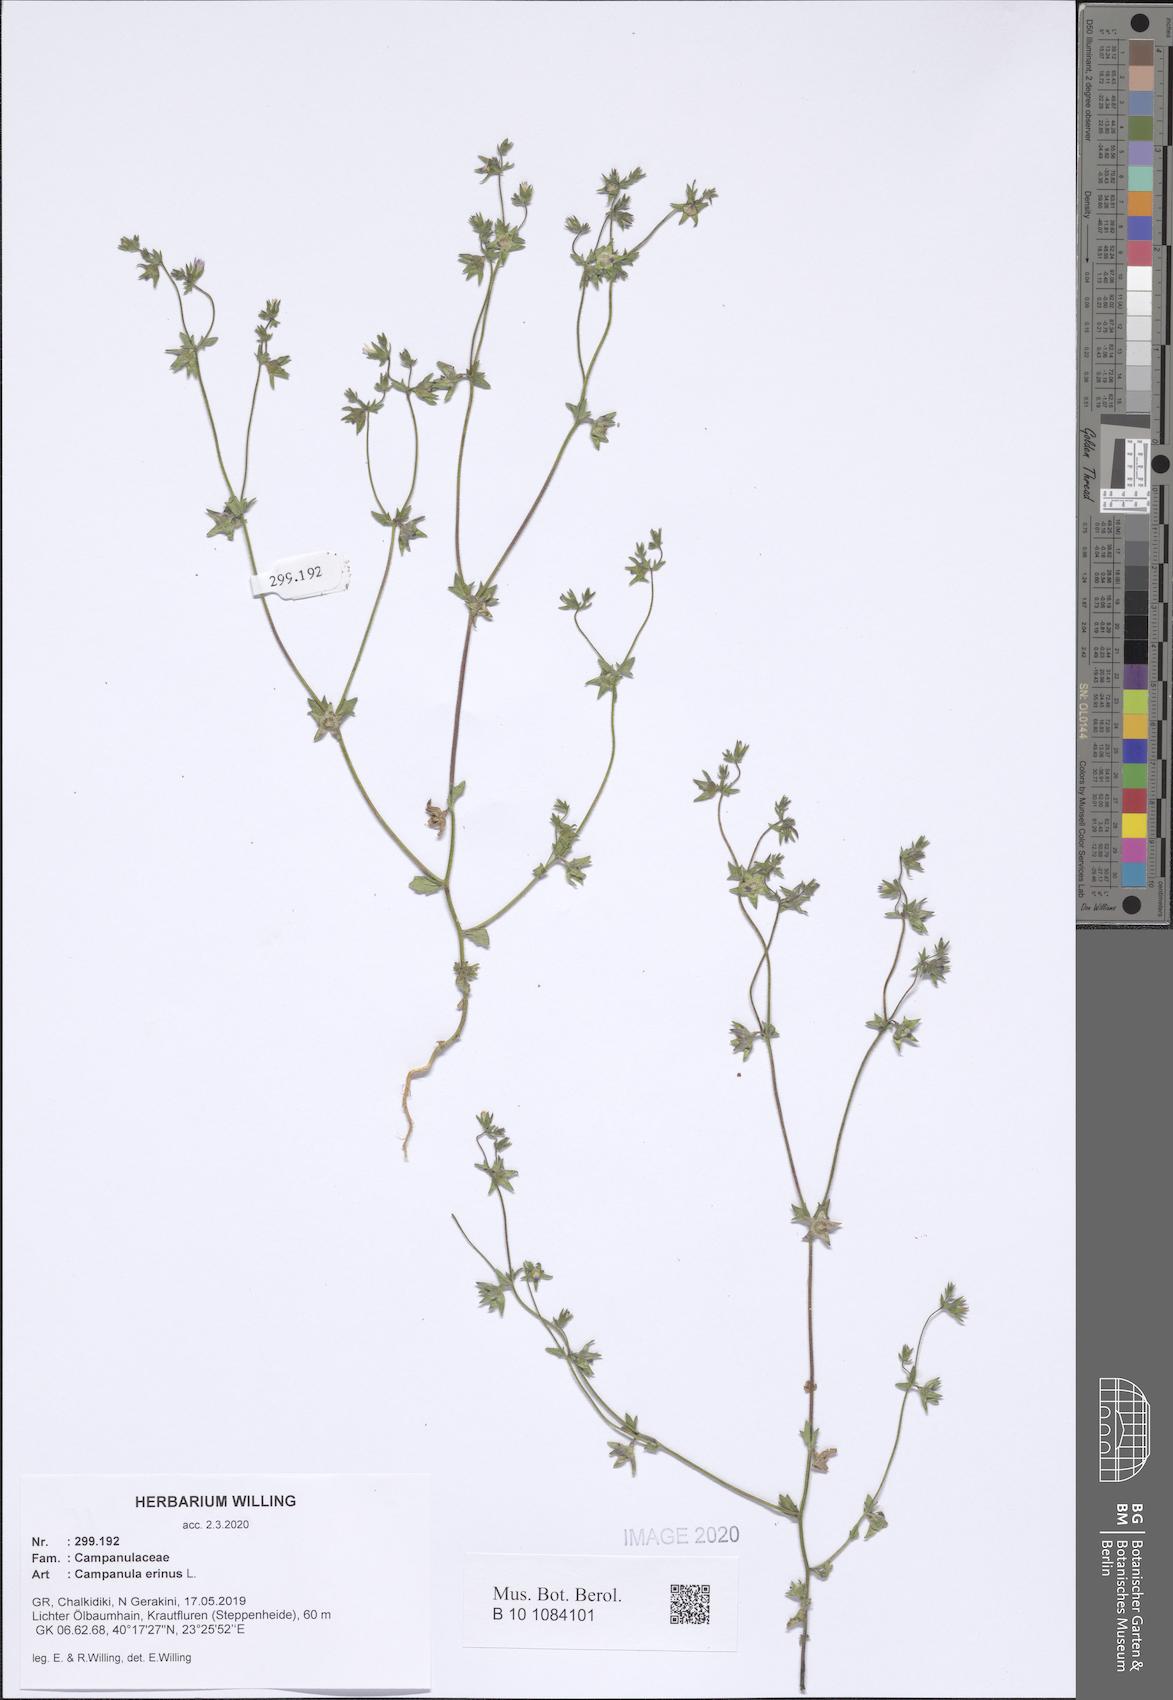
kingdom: Plantae
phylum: Tracheophyta
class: Magnoliopsida
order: Asterales
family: Campanulaceae
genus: Campanula
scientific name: Campanula erinus
